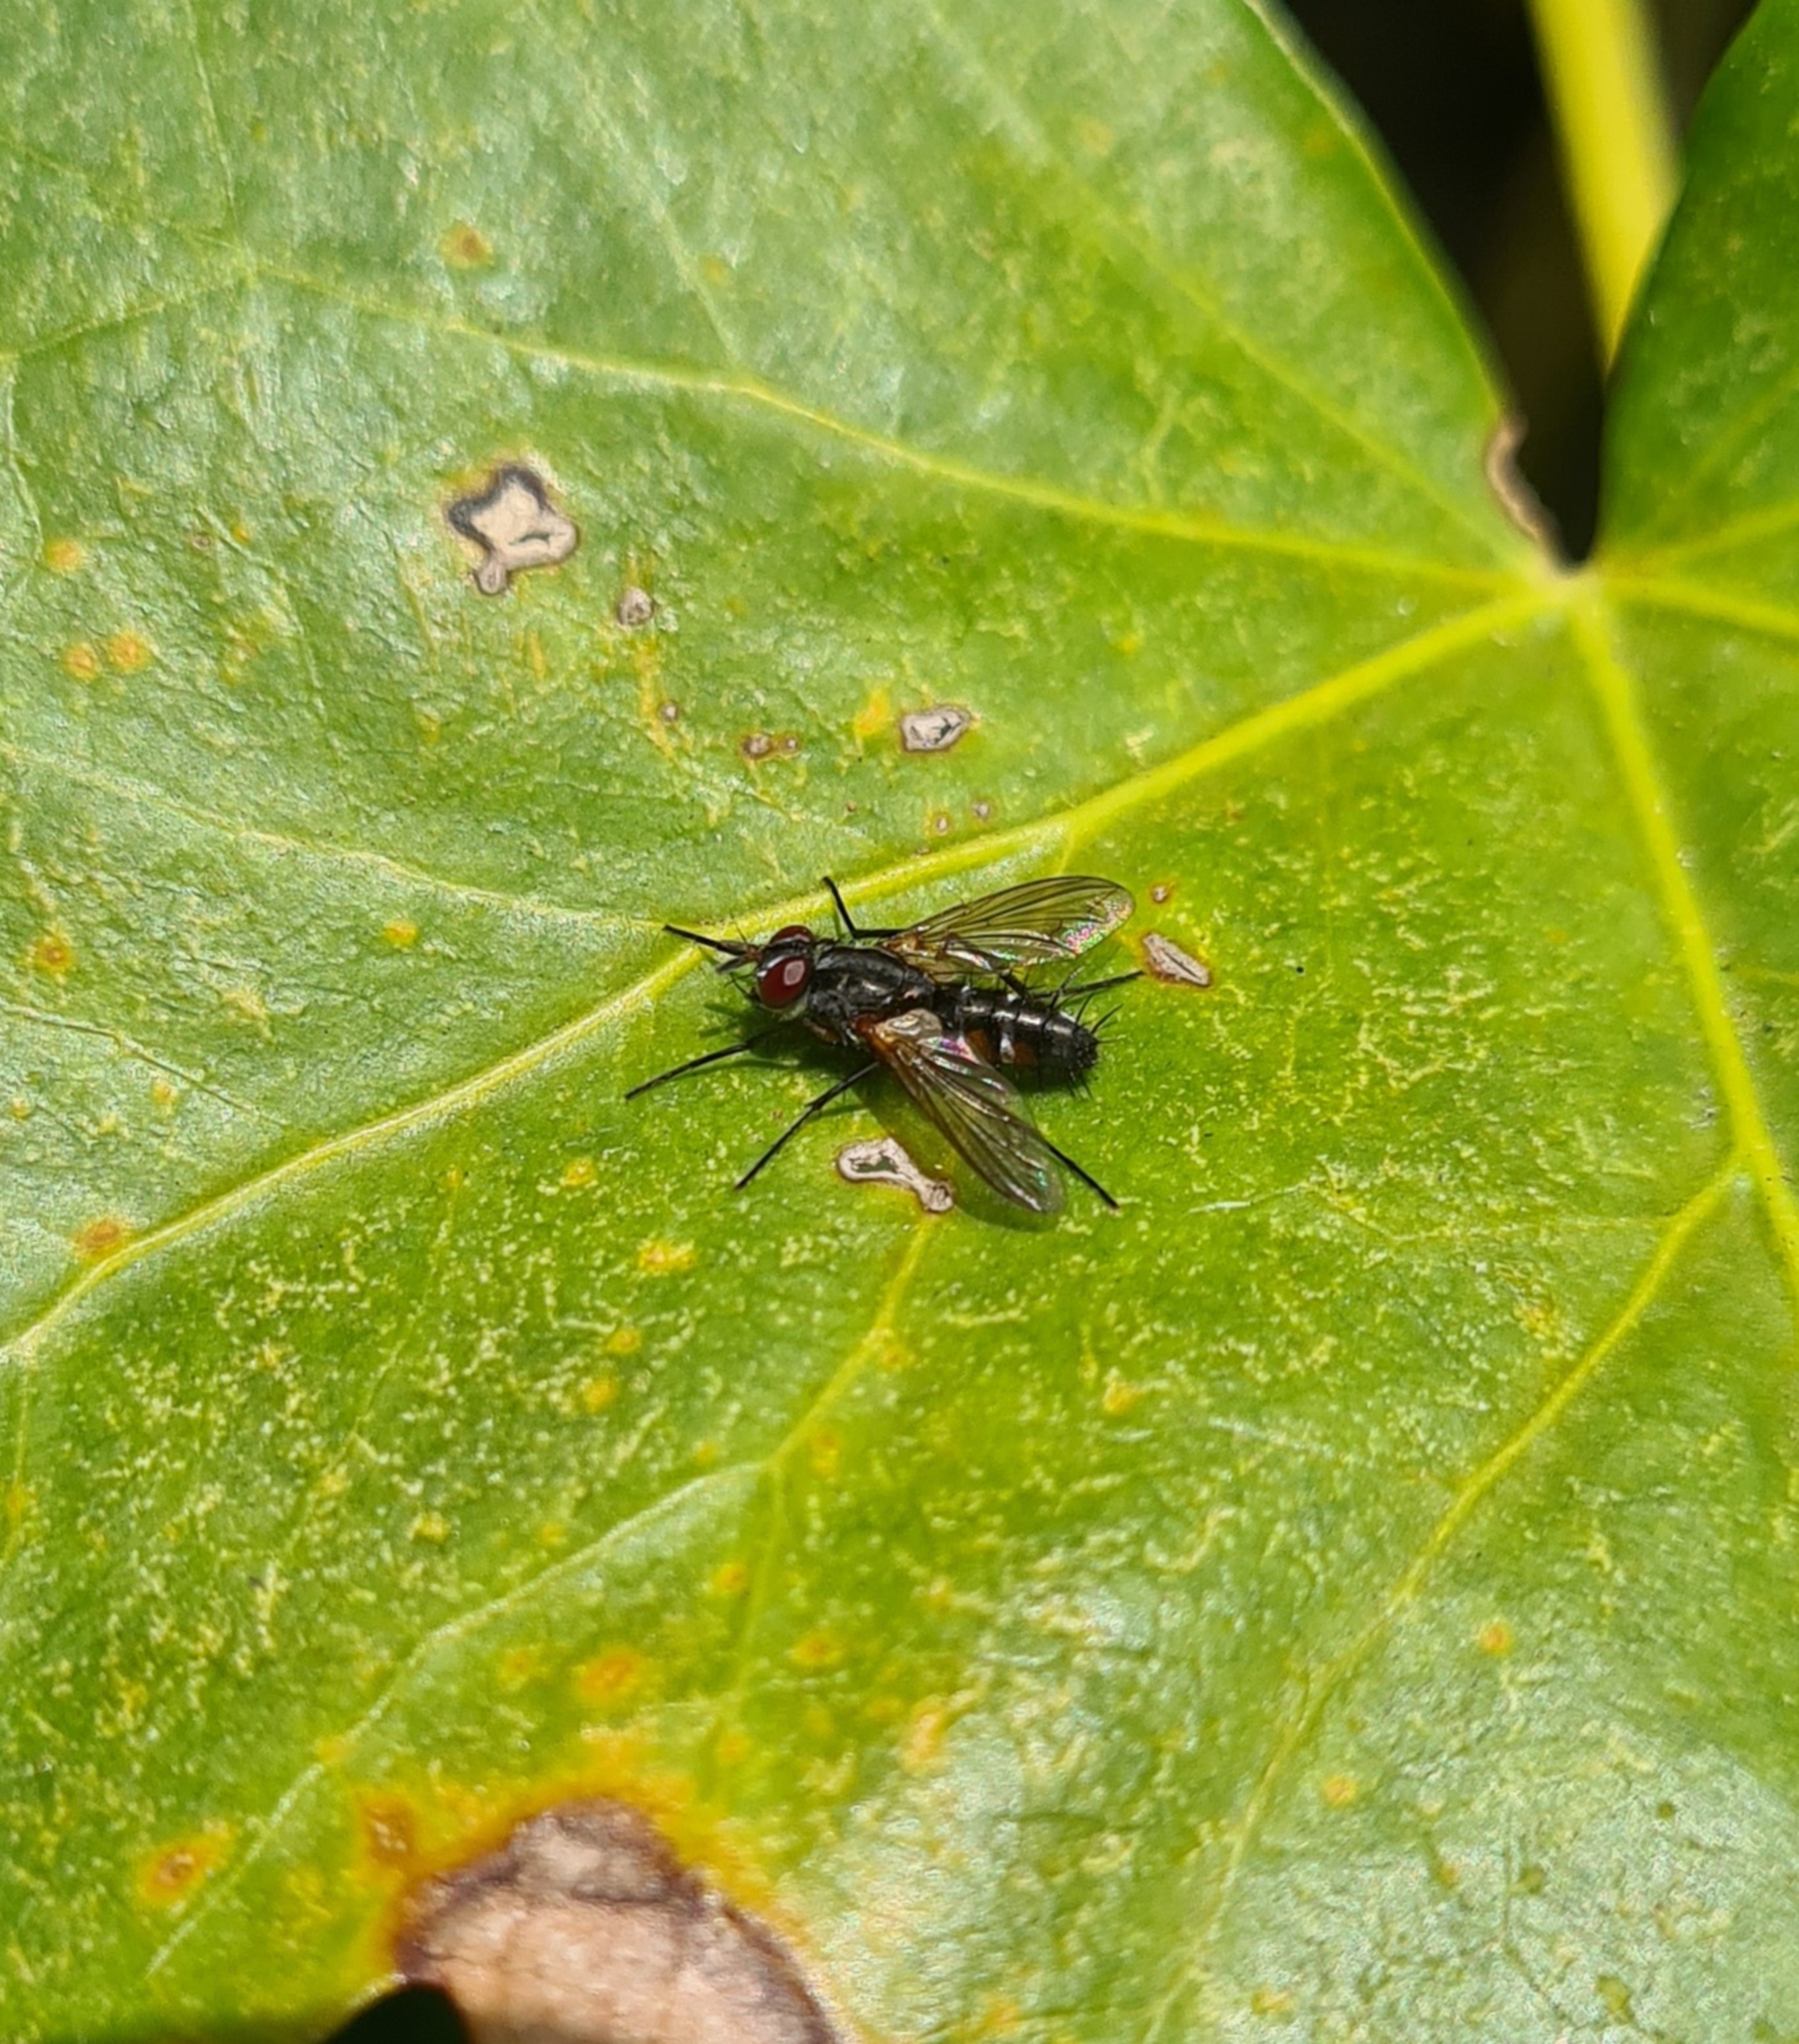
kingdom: Animalia
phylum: Arthropoda
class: Insecta
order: Diptera
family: Tachinidae
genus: Mintho
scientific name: Mintho rufiventris
